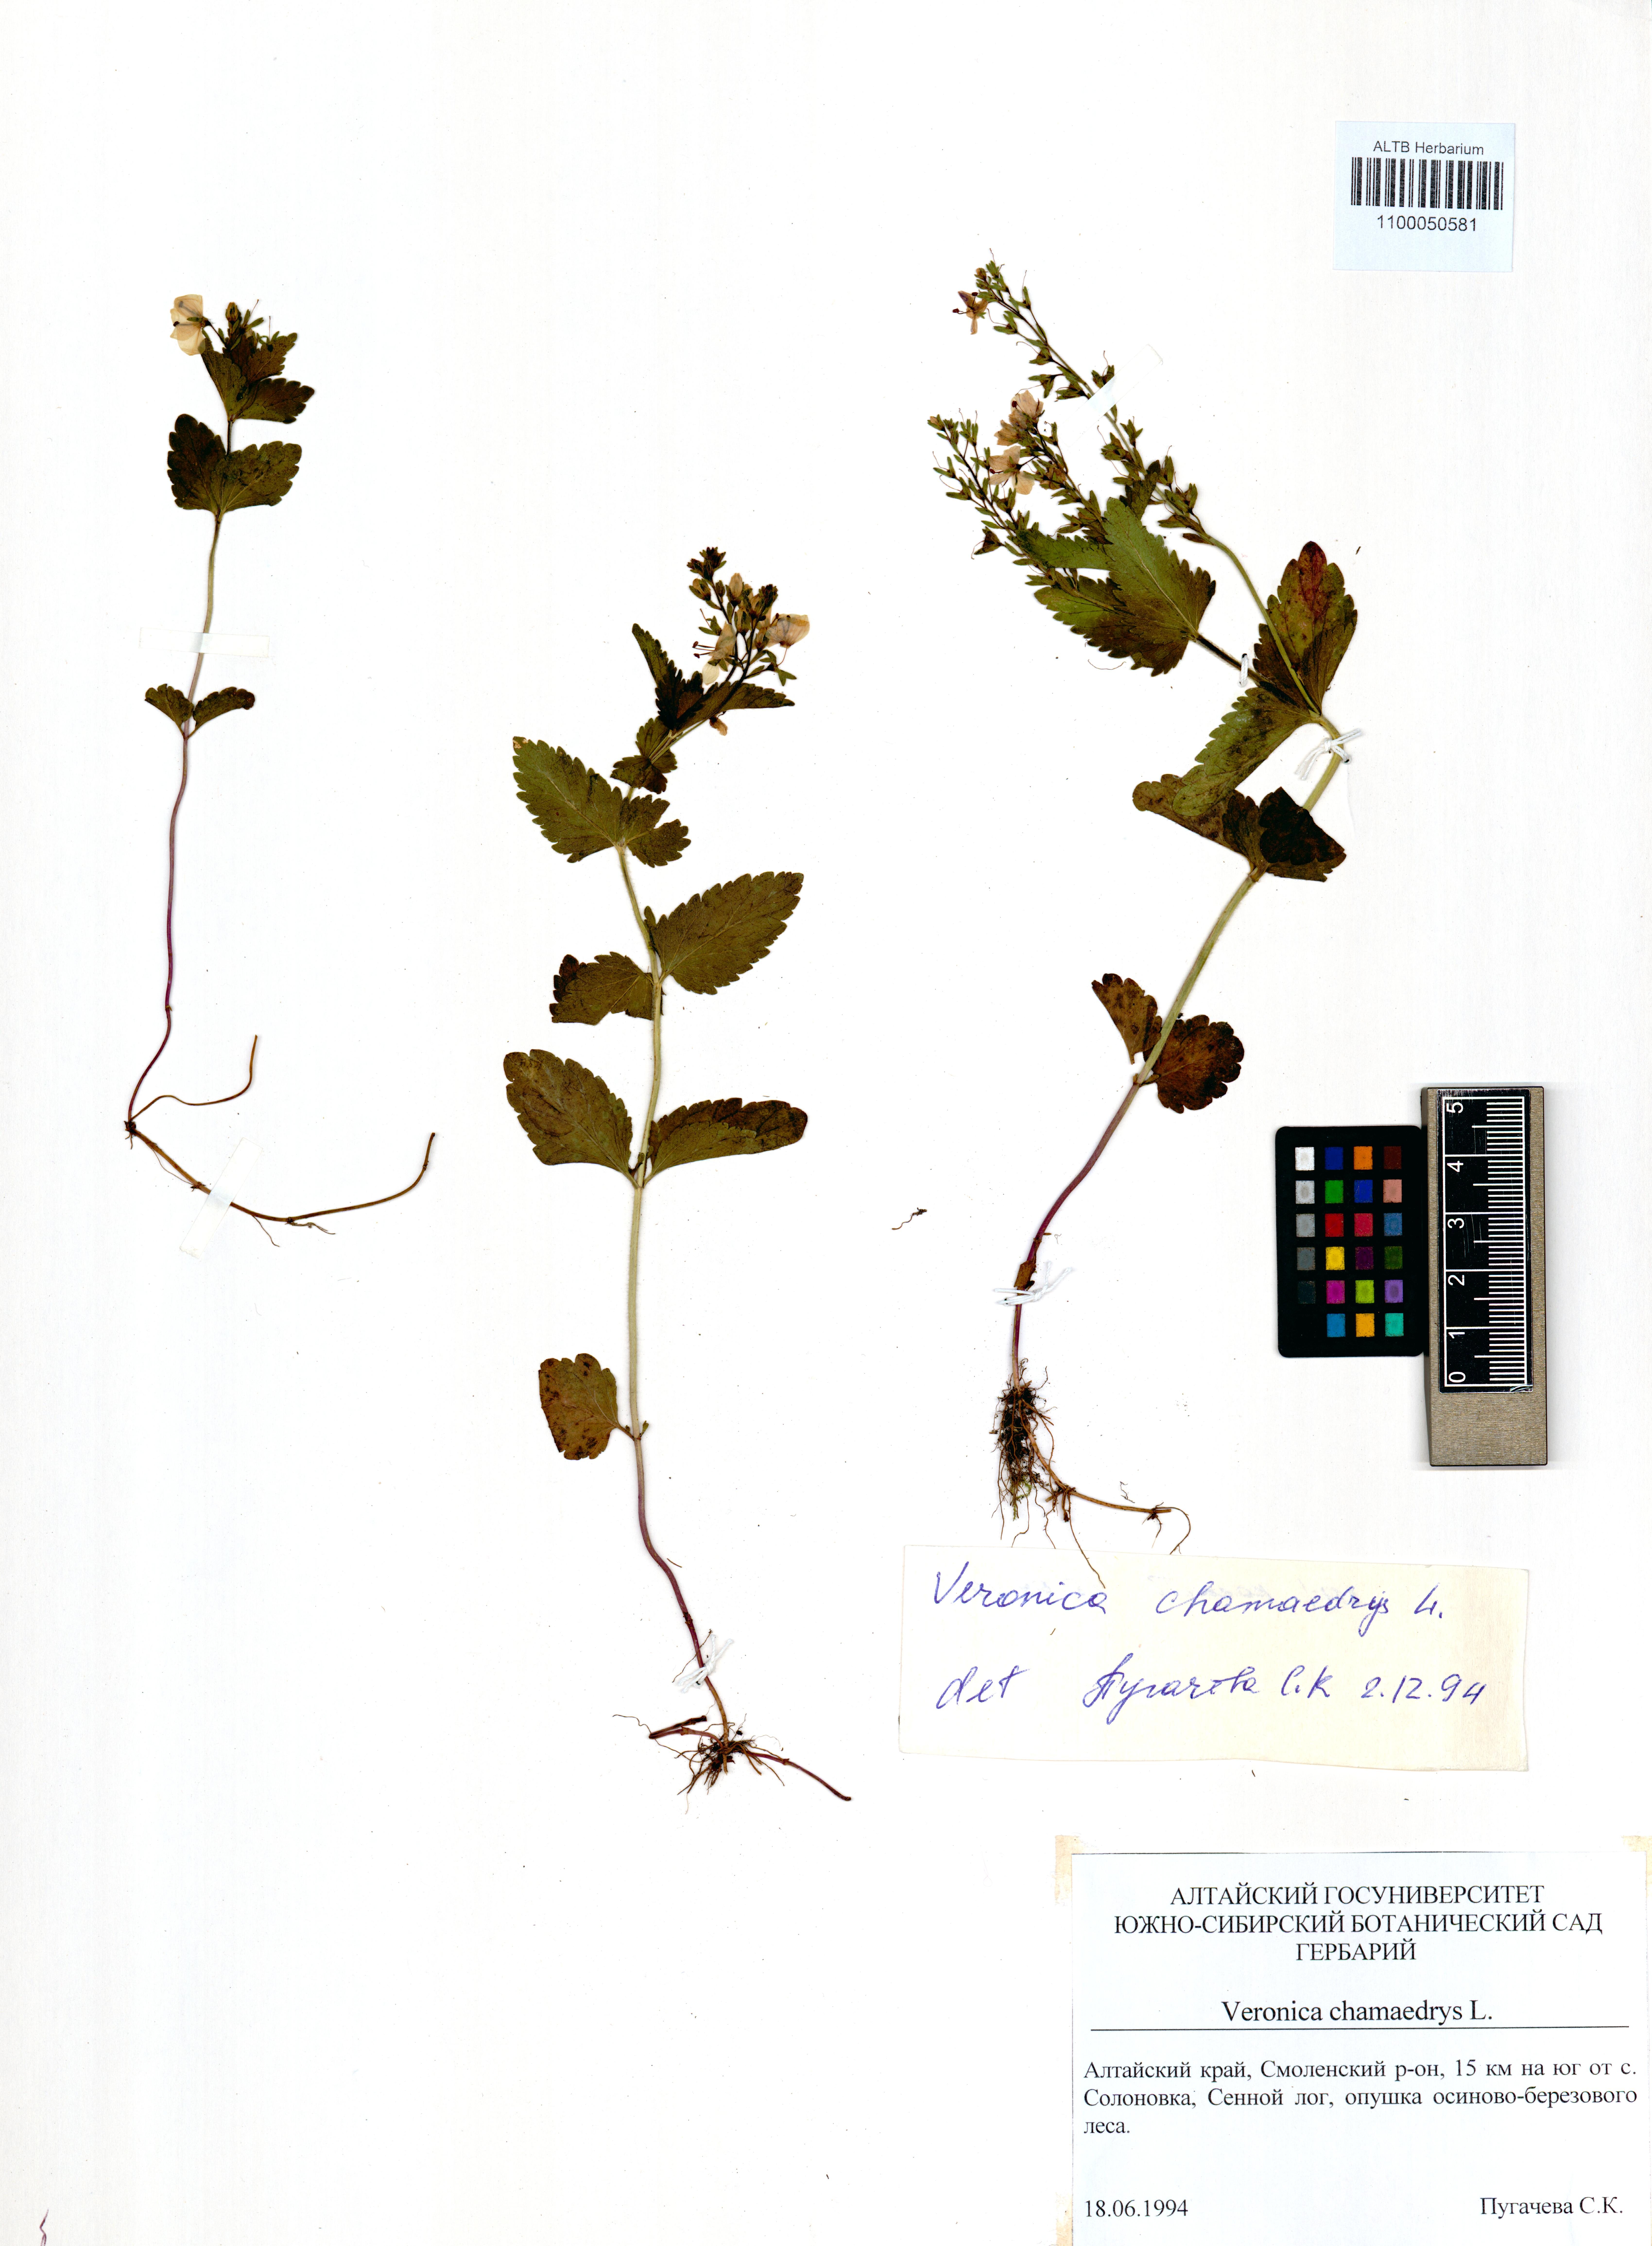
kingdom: Plantae
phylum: Tracheophyta
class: Magnoliopsida
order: Lamiales
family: Plantaginaceae
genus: Veronica
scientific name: Veronica chamaedrys
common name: Germander speedwell
